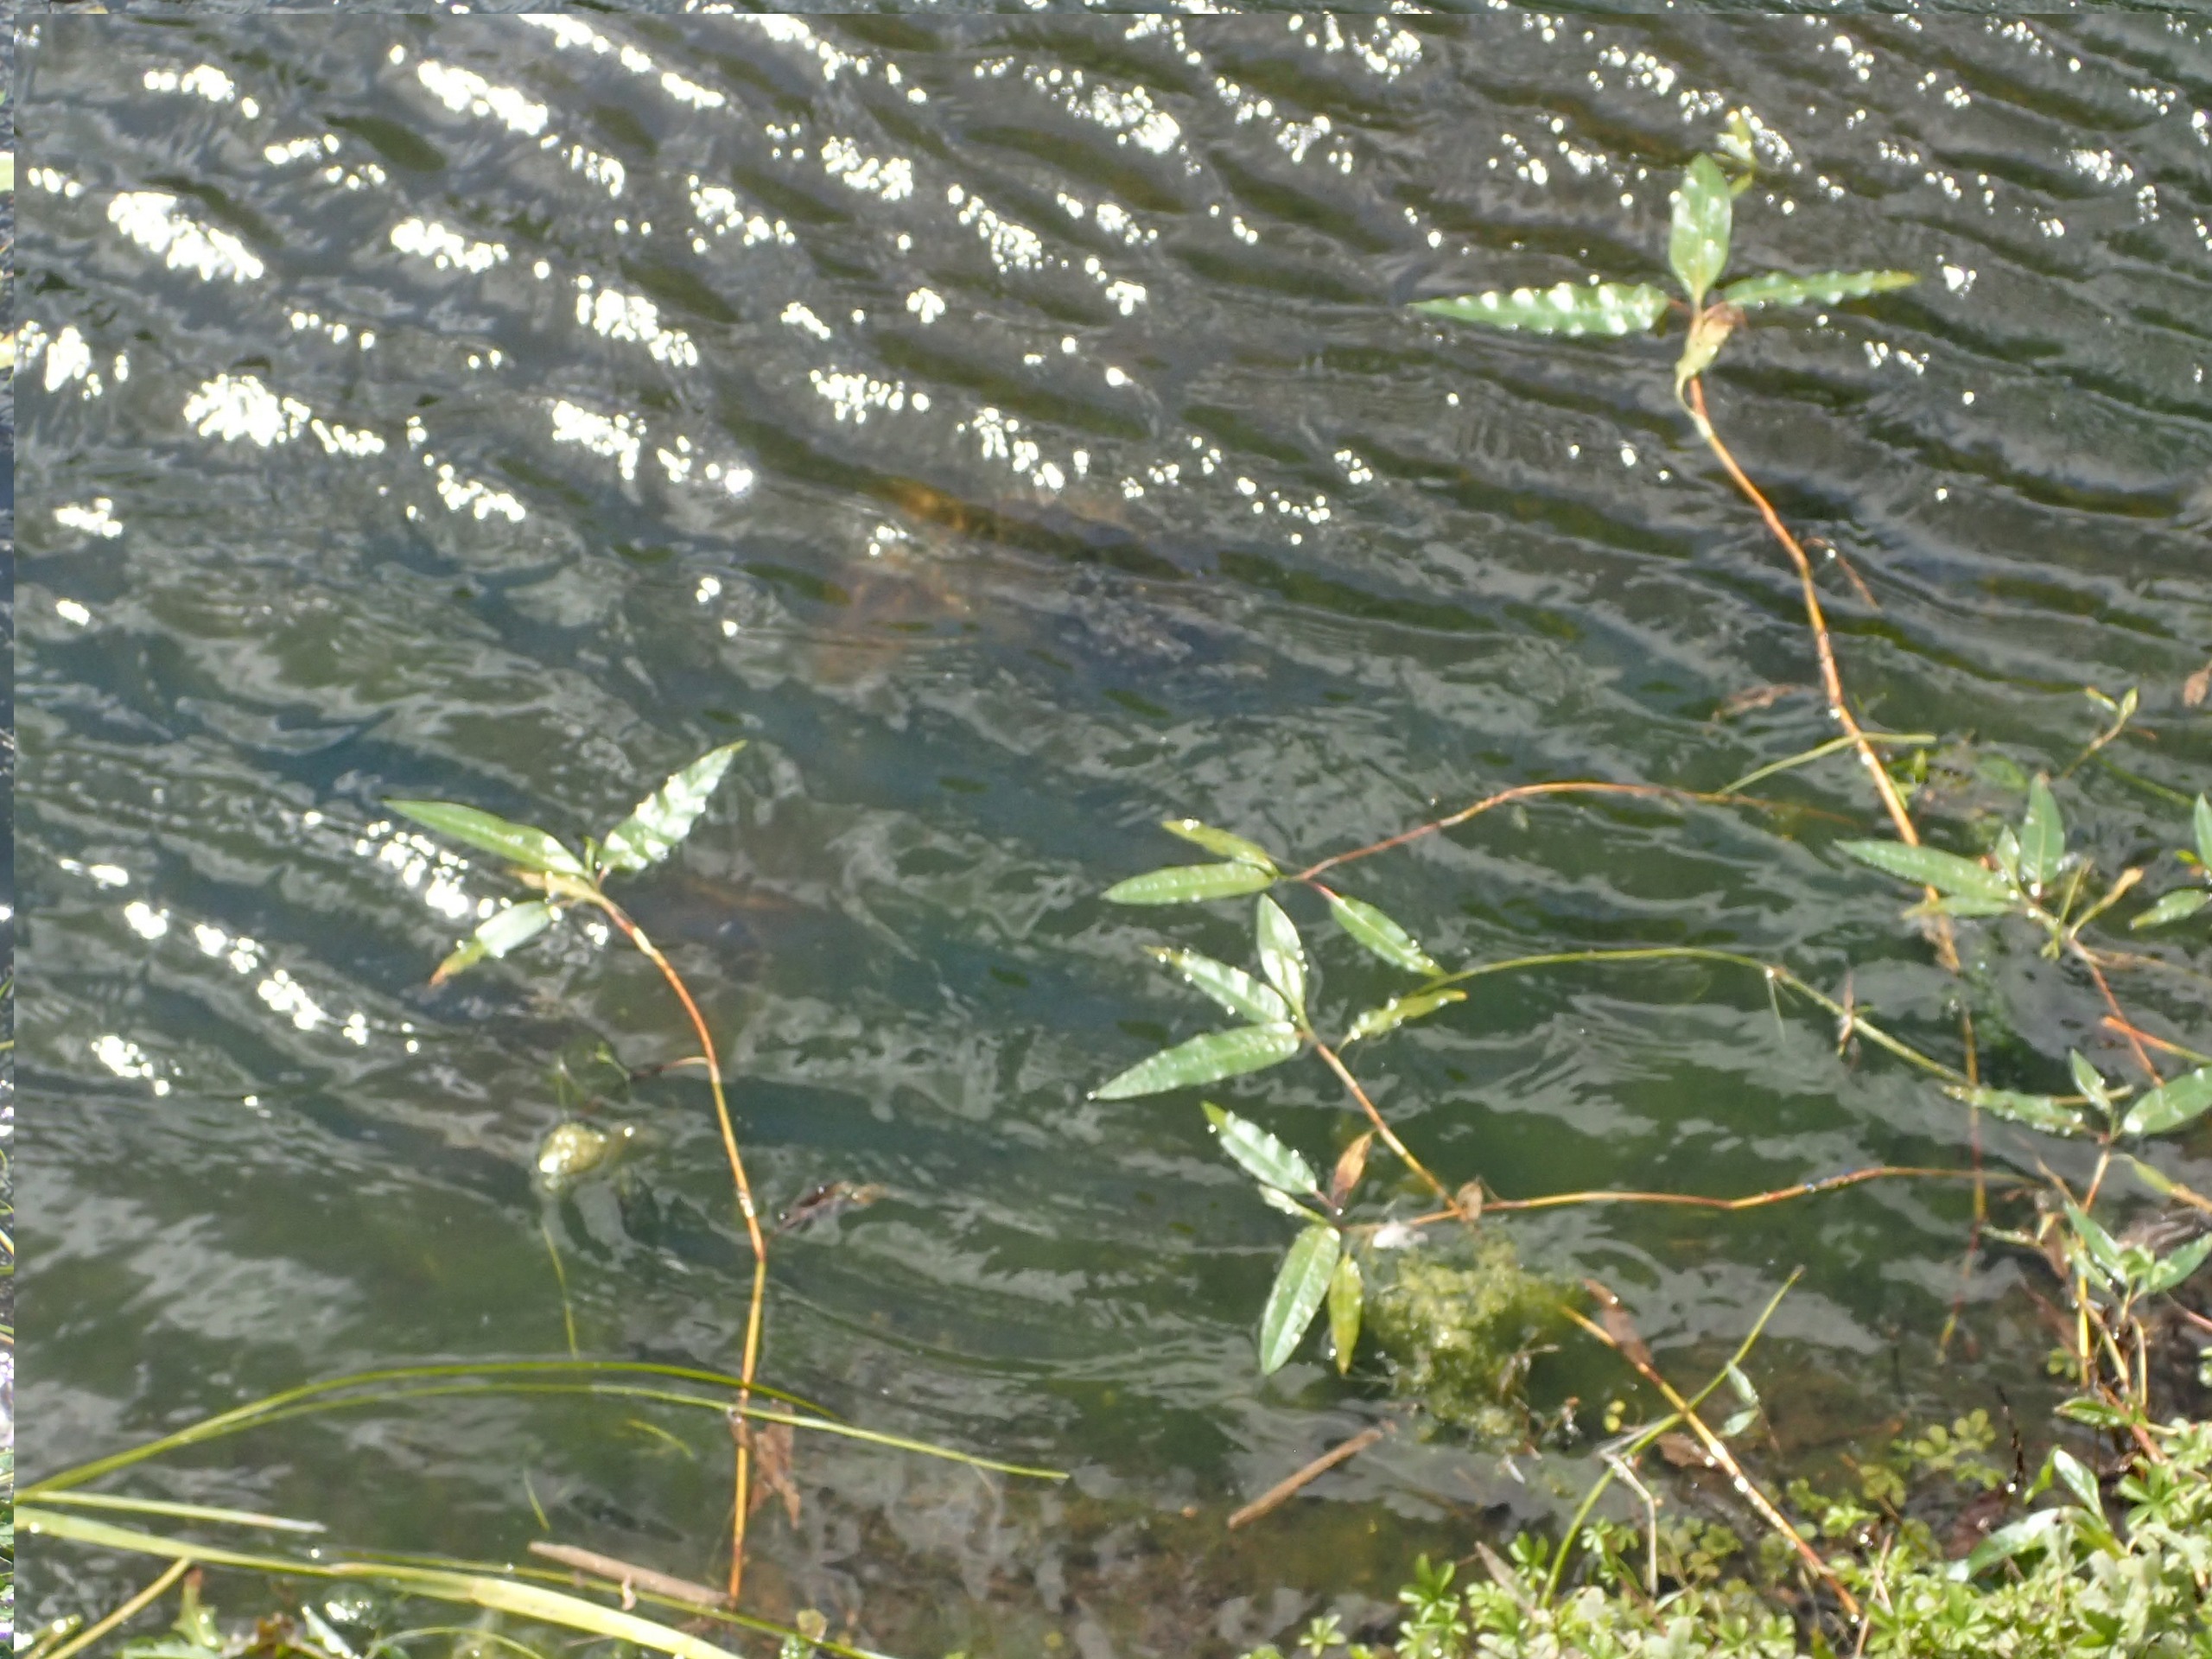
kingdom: Plantae
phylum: Tracheophyta
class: Magnoliopsida
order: Caryophyllales
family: Polygonaceae
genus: Persicaria
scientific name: Persicaria amphibia
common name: Vand-pileurt
